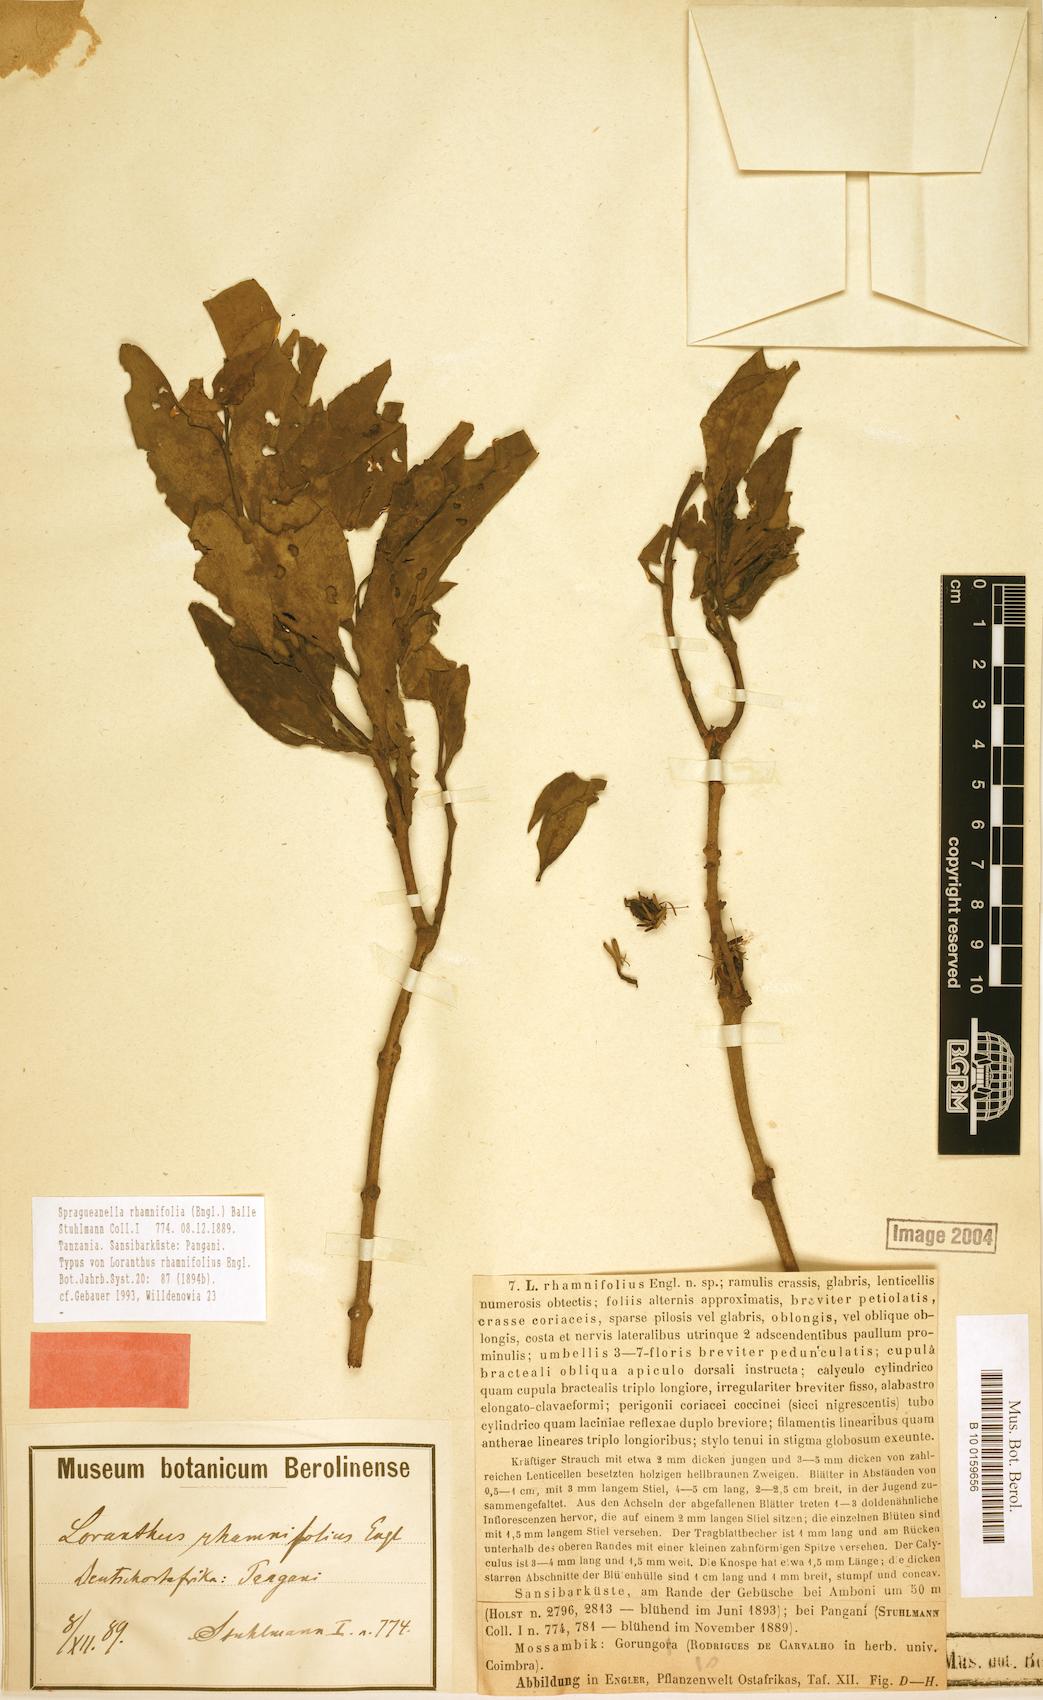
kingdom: Plantae
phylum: Tracheophyta
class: Magnoliopsida
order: Santalales
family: Loranthaceae
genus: Spragueanella
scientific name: Spragueanella rhamnifolia
